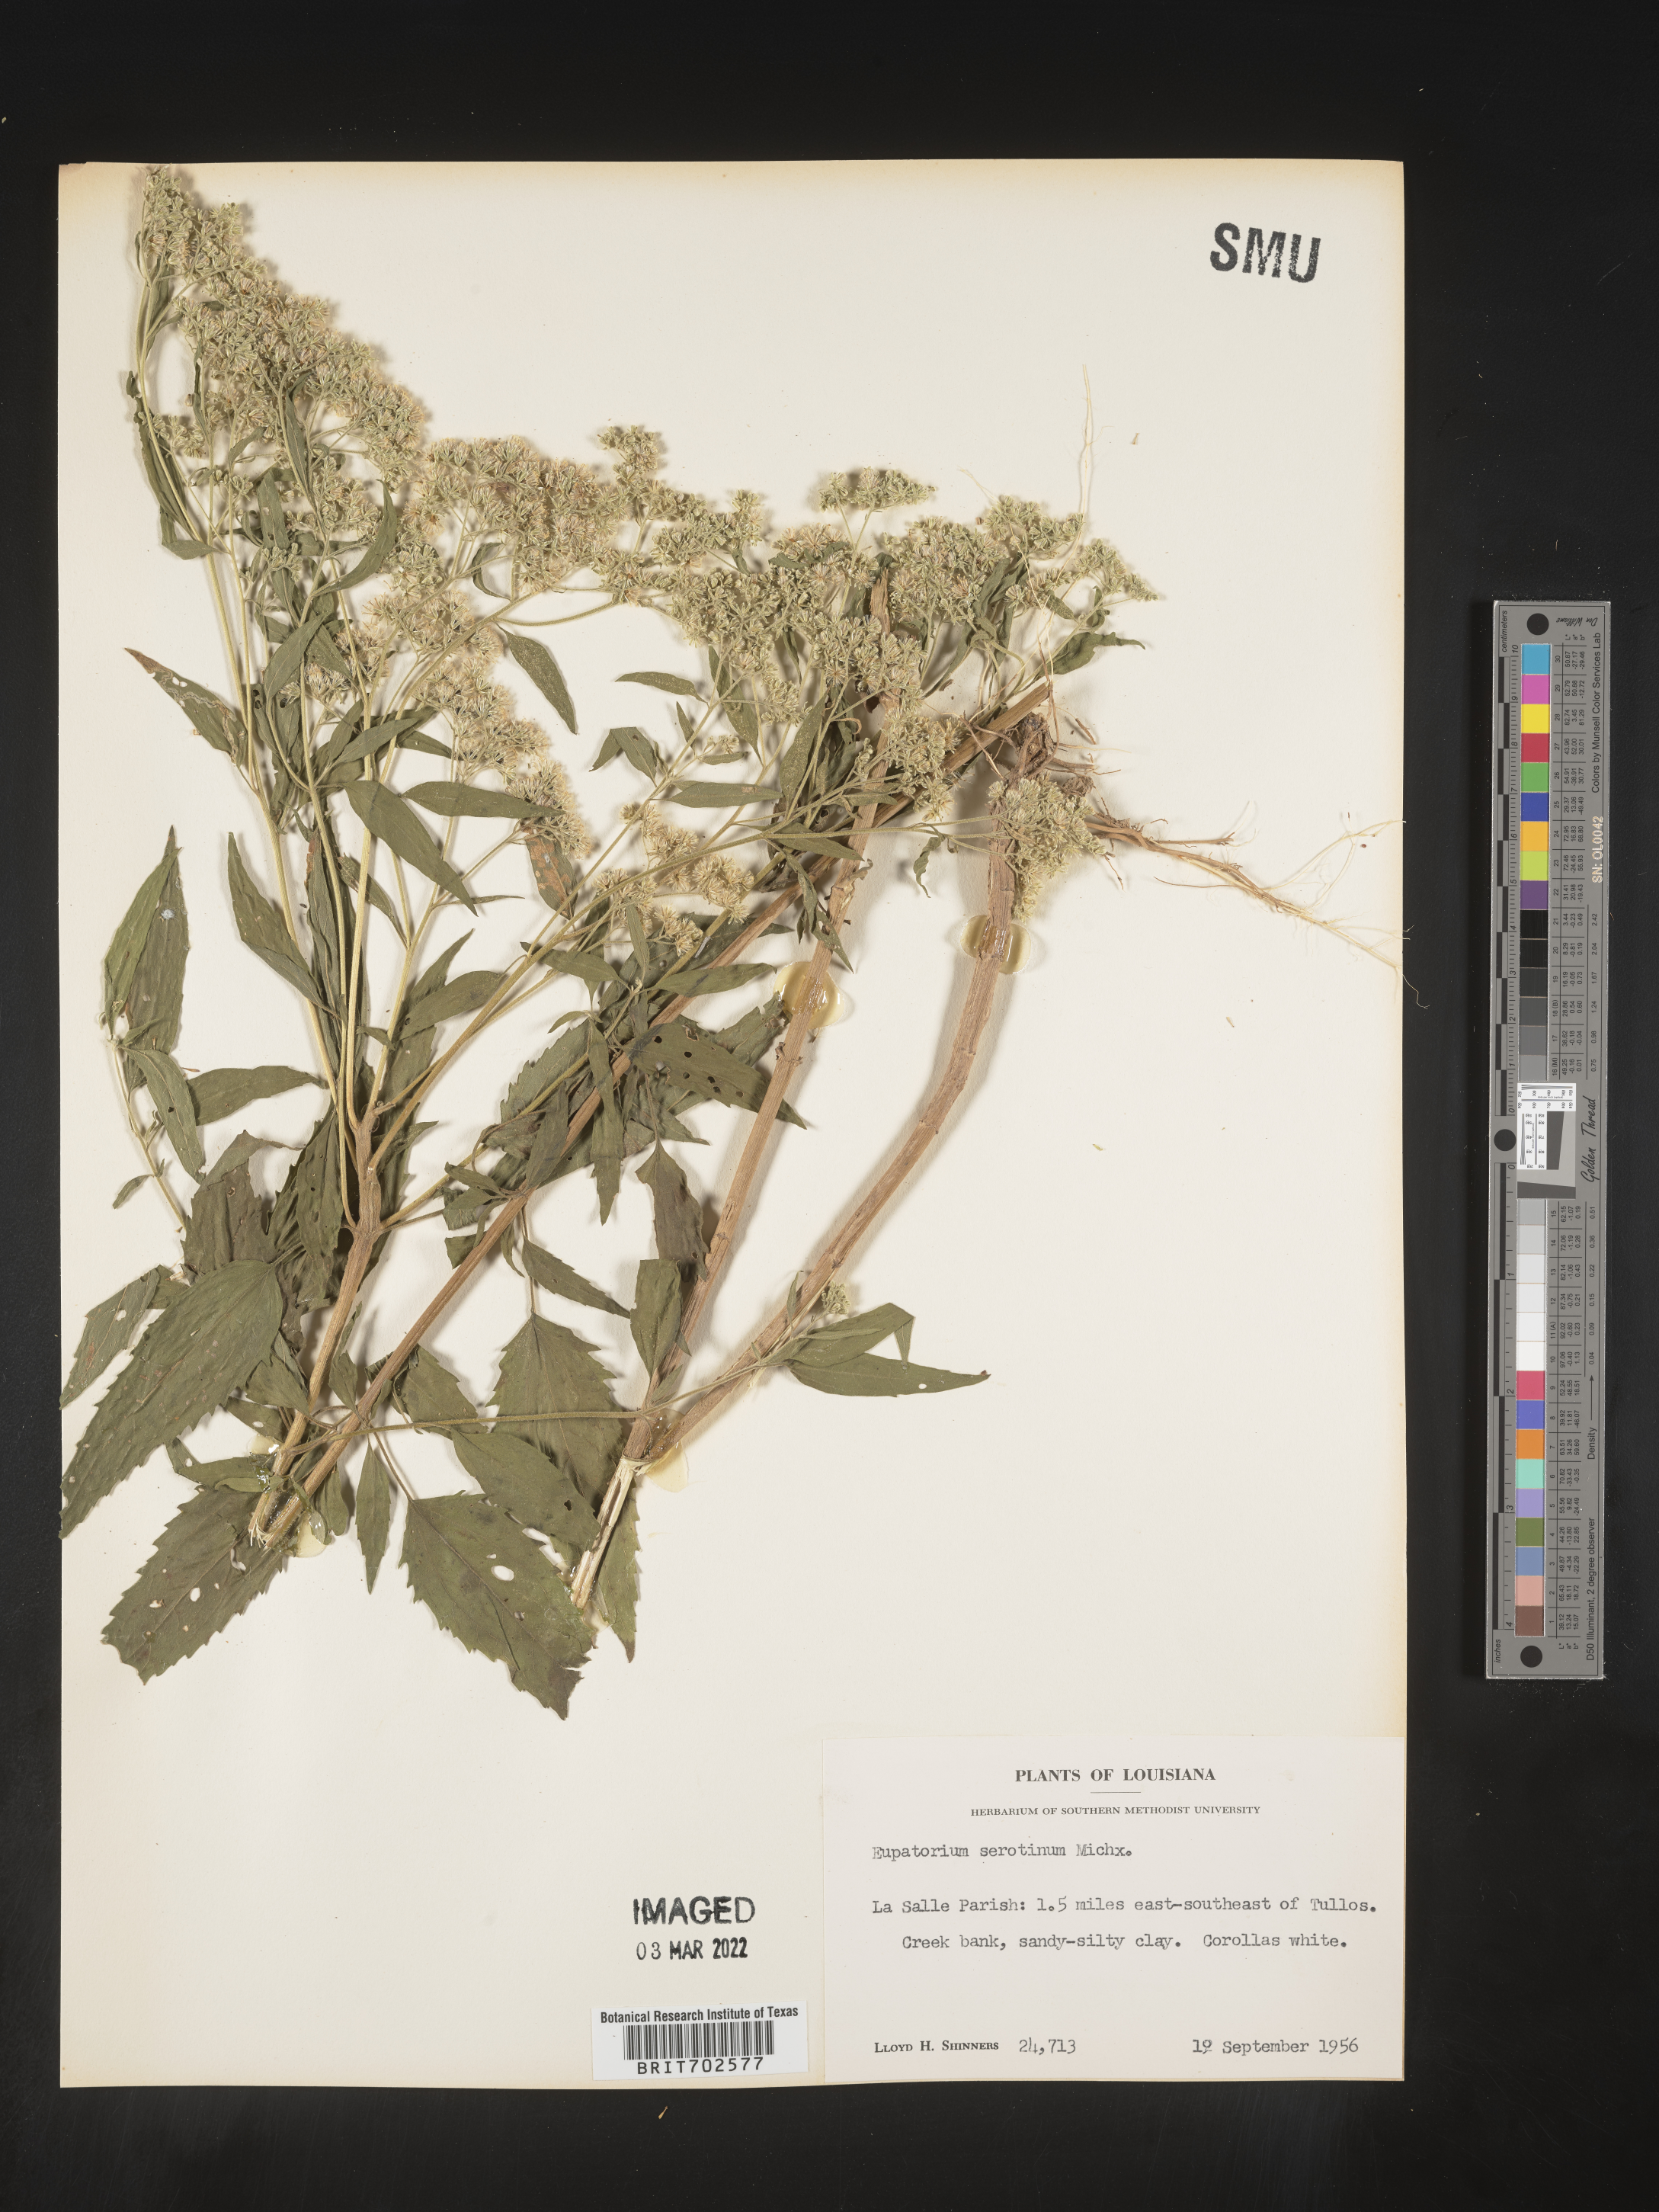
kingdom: Plantae
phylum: Tracheophyta
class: Magnoliopsida
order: Asterales
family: Asteraceae
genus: Eupatorium
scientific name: Eupatorium serotinum
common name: Late boneset
